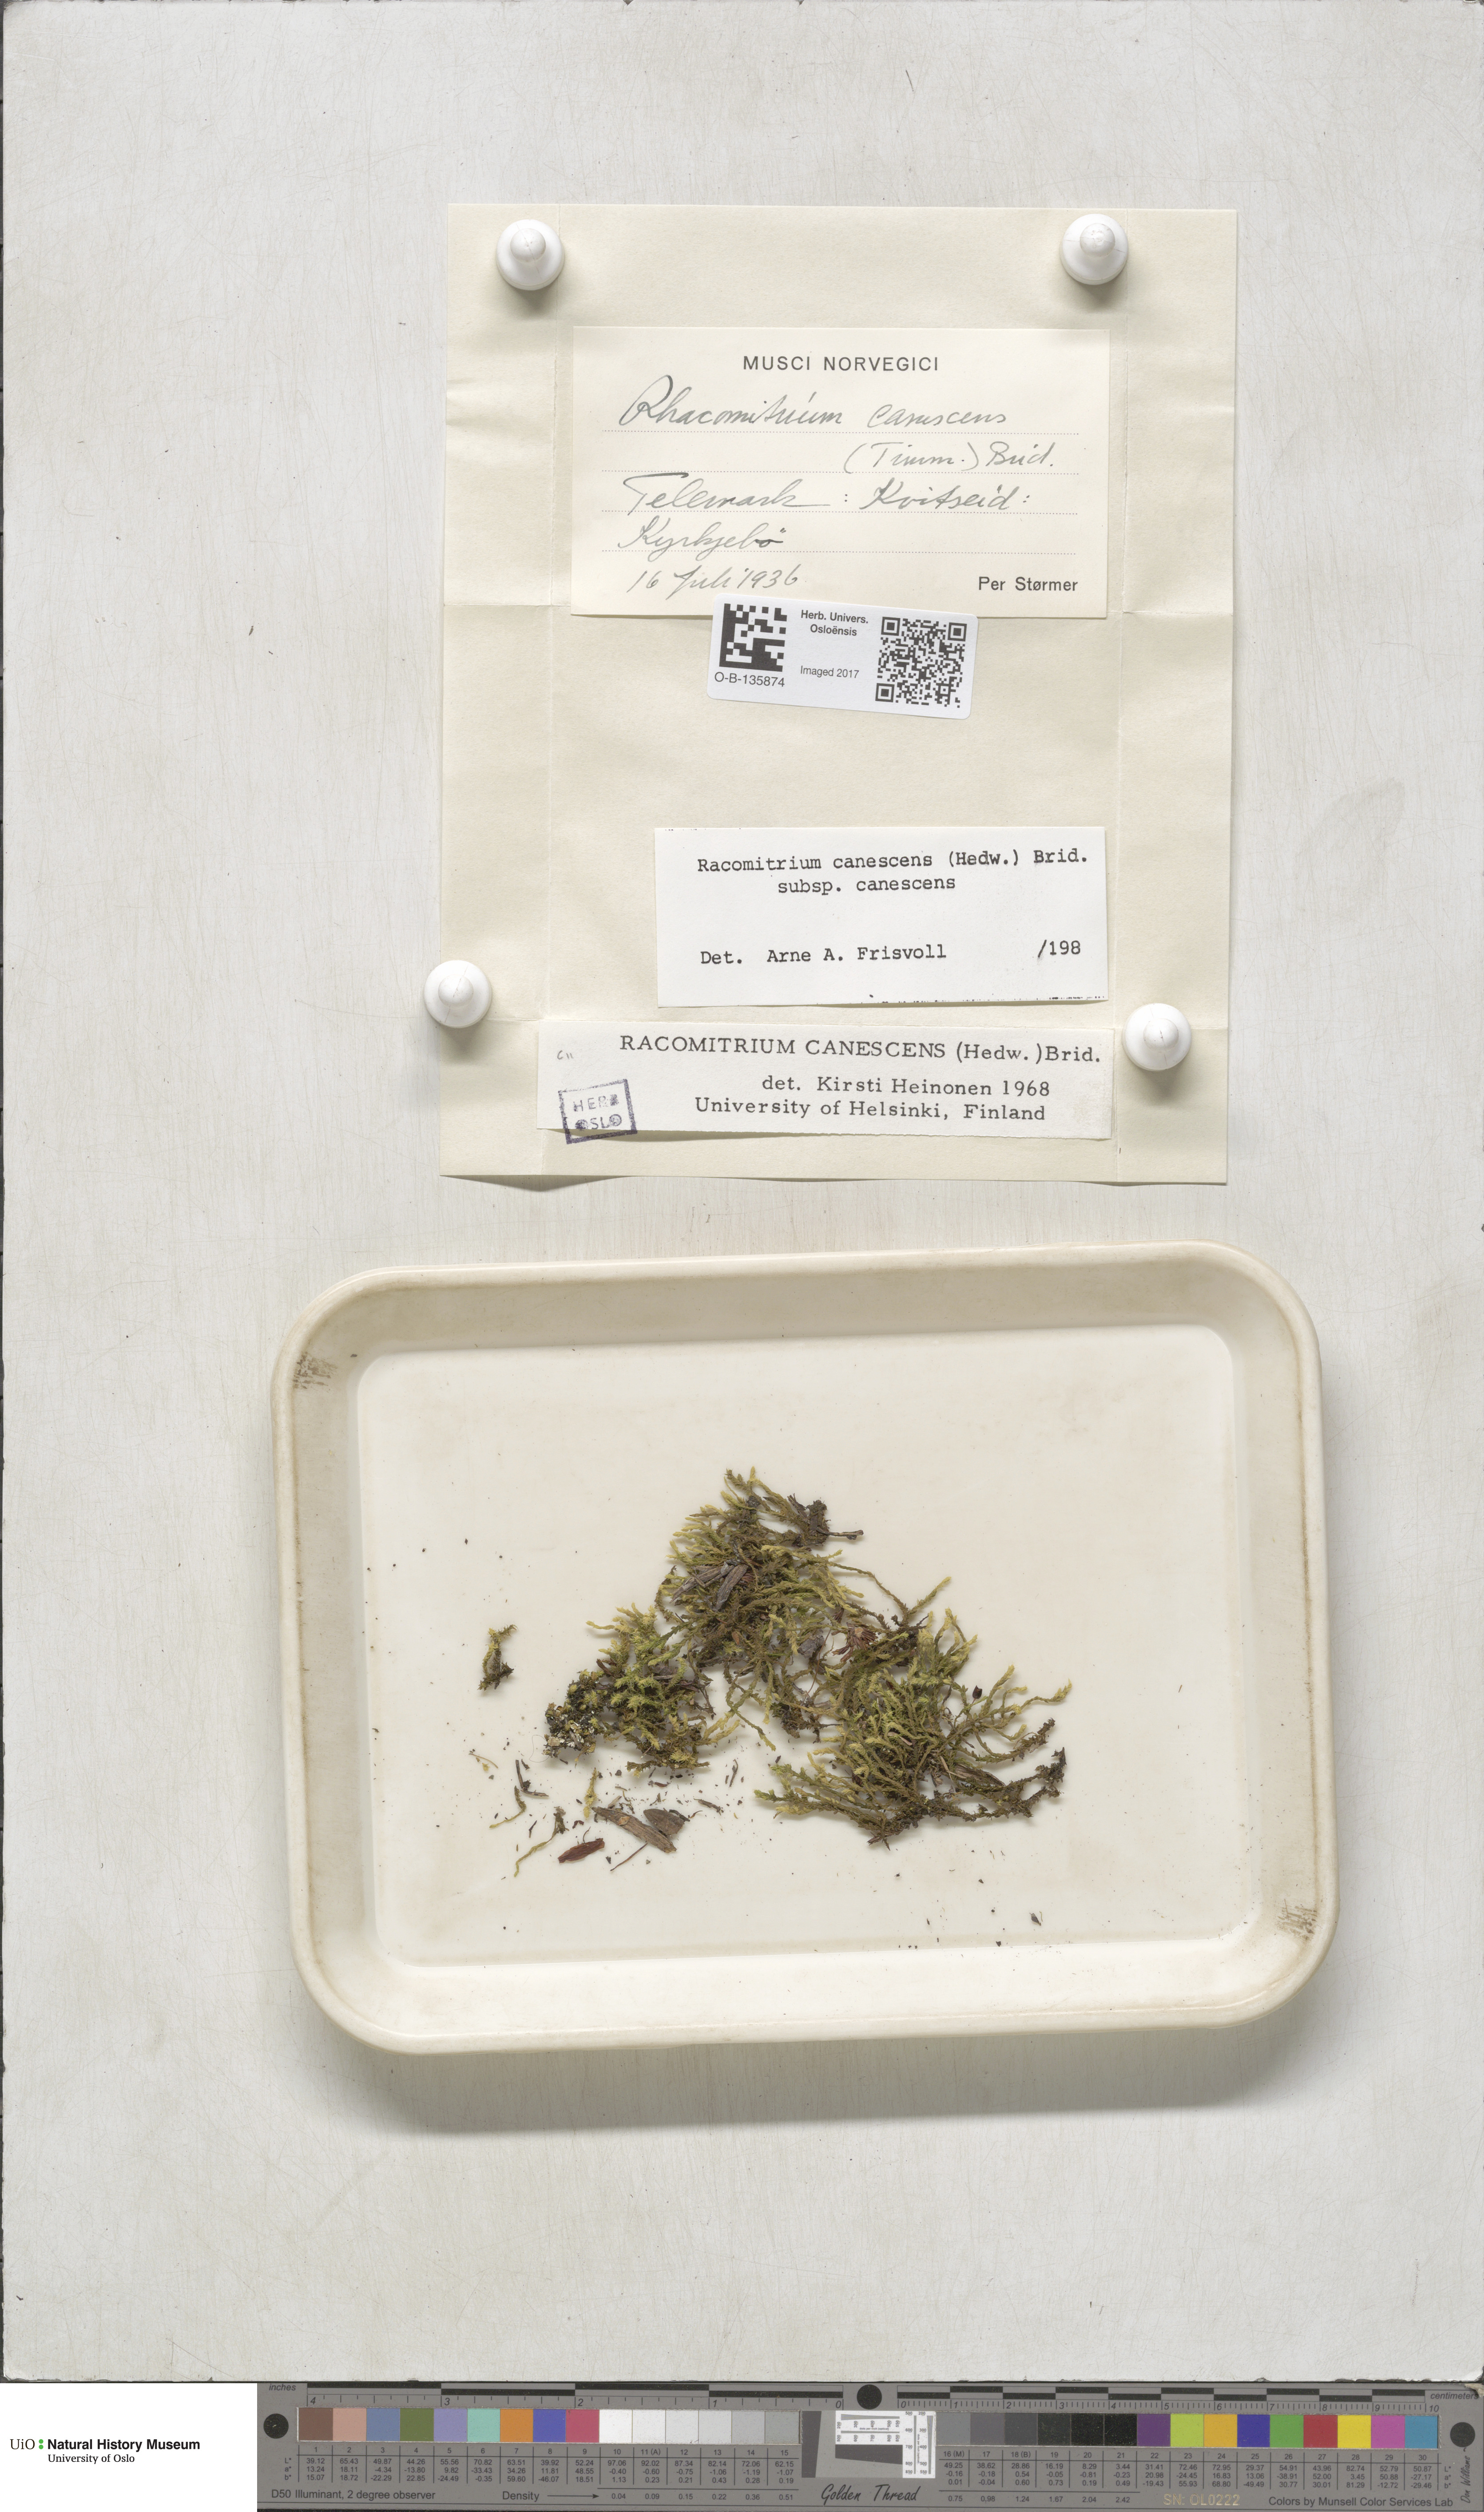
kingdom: Plantae
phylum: Bryophyta
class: Bryopsida
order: Grimmiales
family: Grimmiaceae
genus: Niphotrichum
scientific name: Niphotrichum canescens
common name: Hoary fringe-moss
